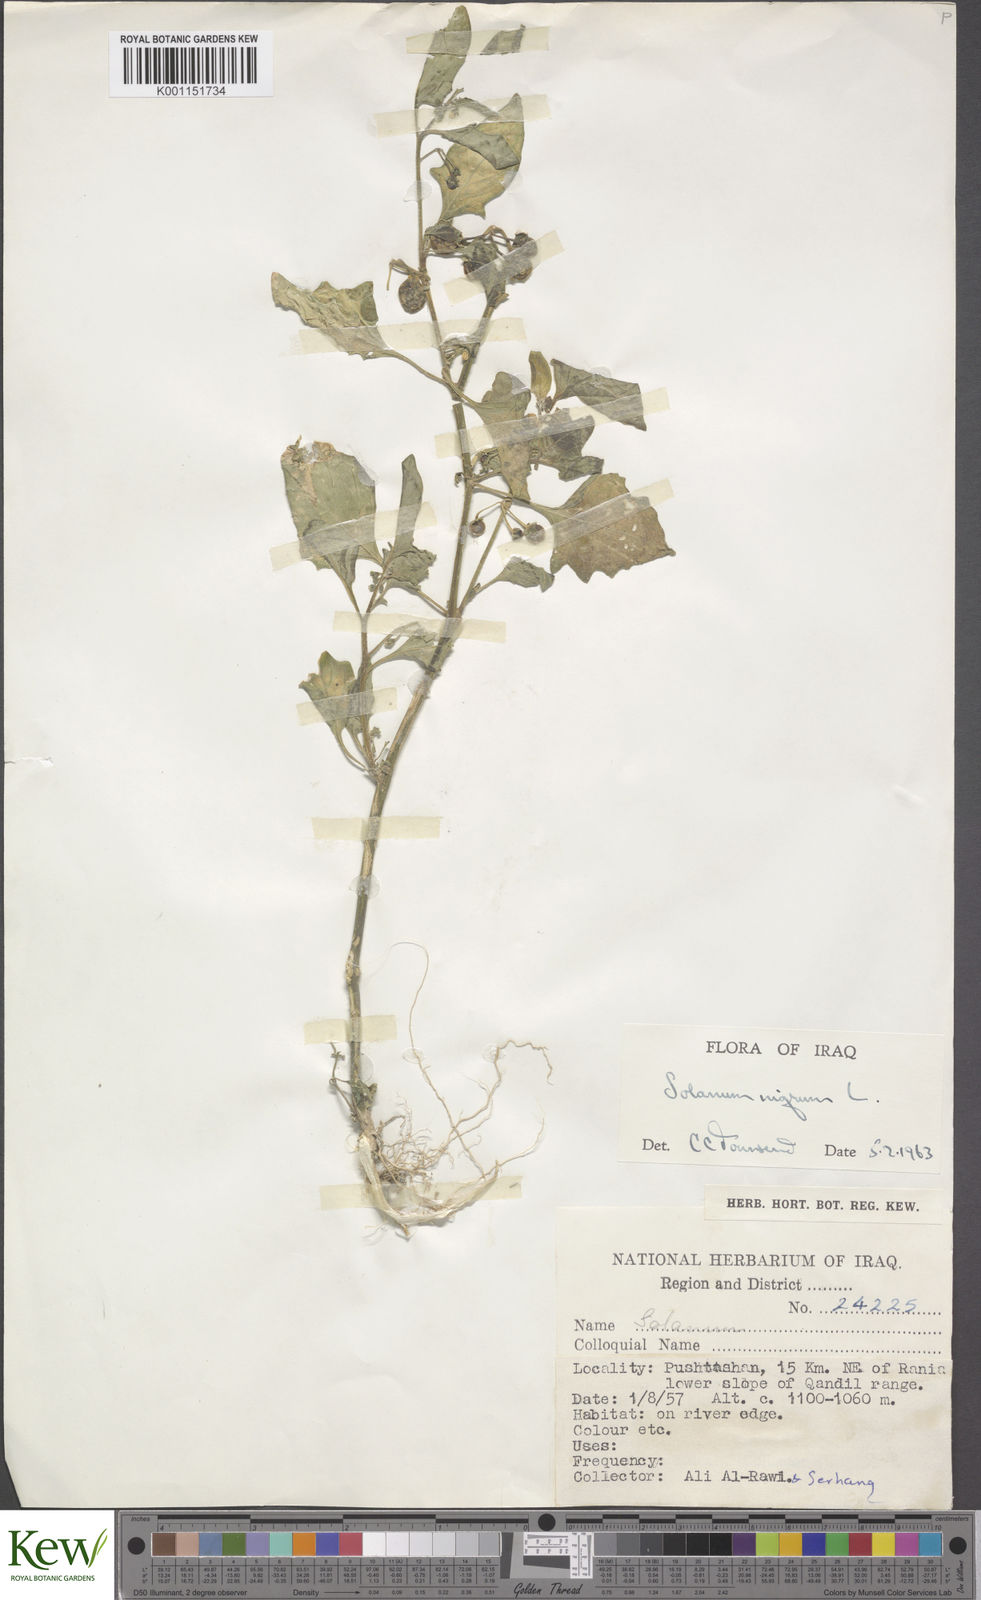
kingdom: Plantae
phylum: Tracheophyta
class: Magnoliopsida
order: Solanales
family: Solanaceae
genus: Solanum
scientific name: Solanum villosum
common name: Red nightshade
